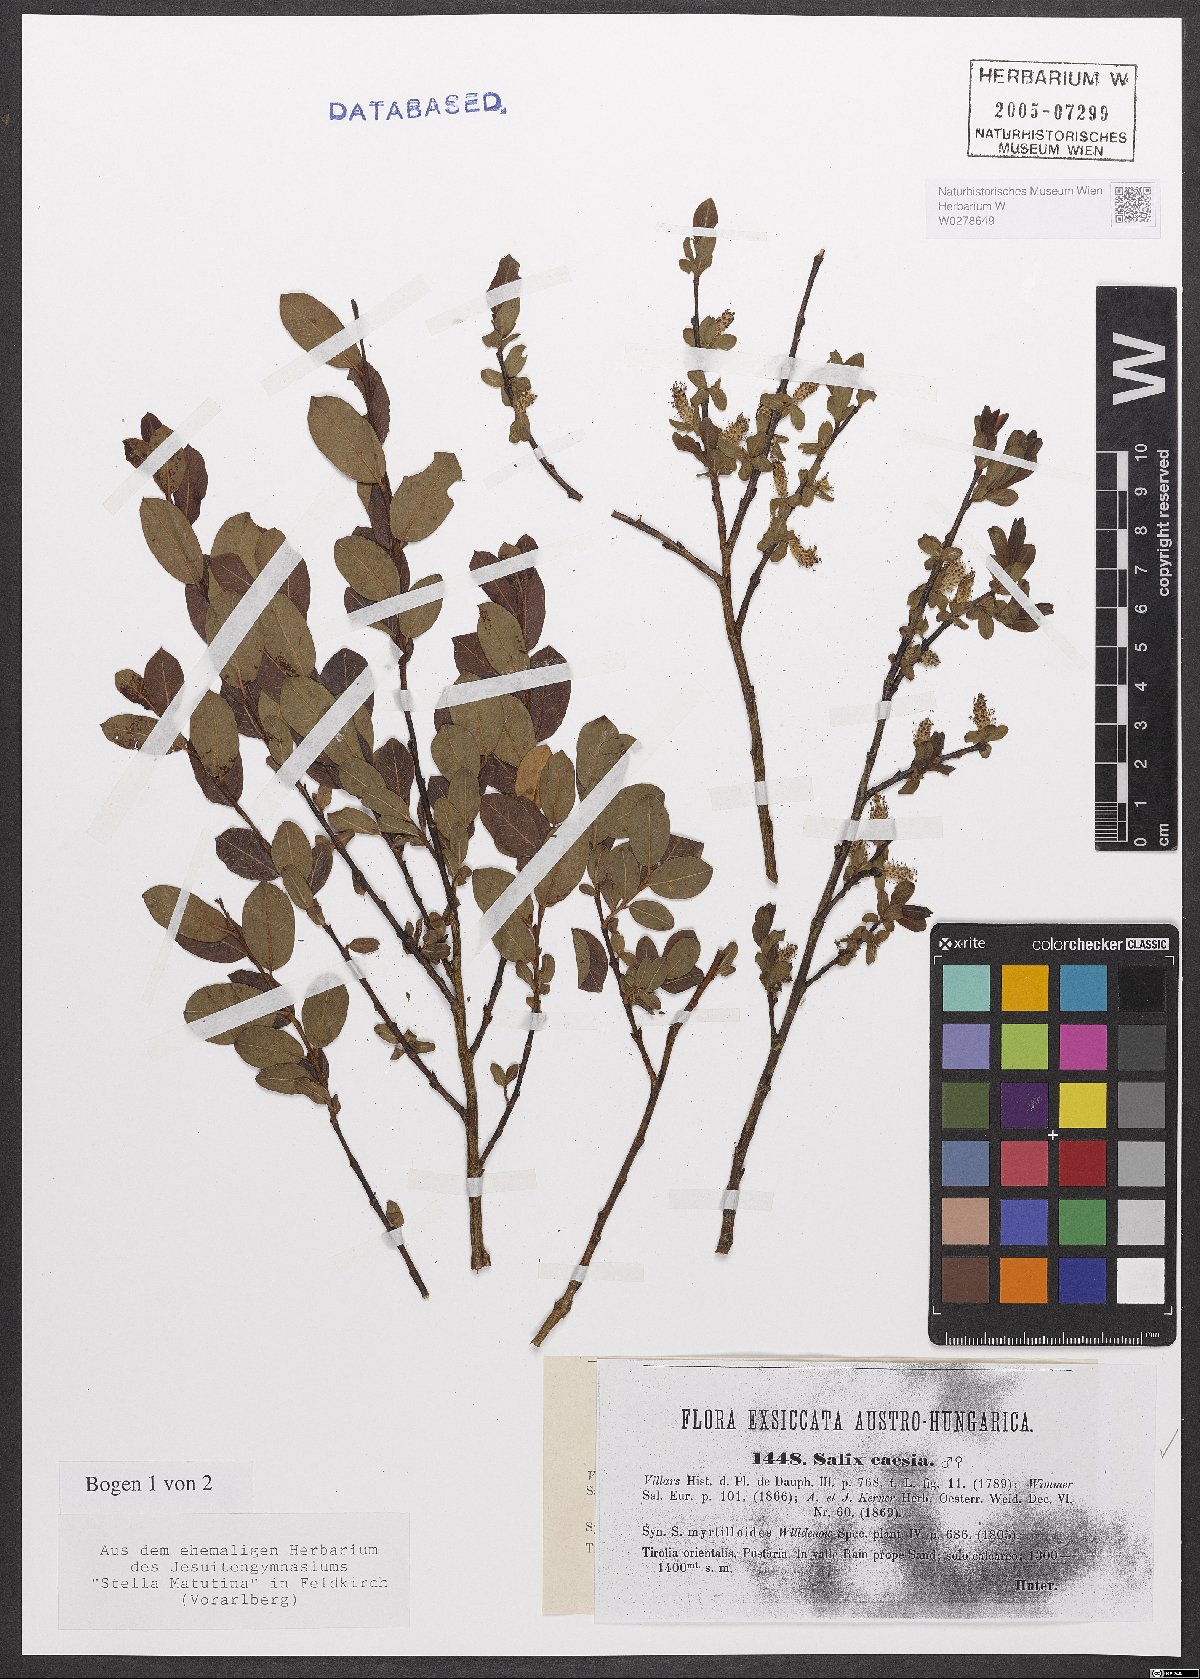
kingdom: Plantae
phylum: Tracheophyta
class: Magnoliopsida
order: Malpighiales
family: Salicaceae
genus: Salix
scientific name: Salix caesia
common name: Blue willow
